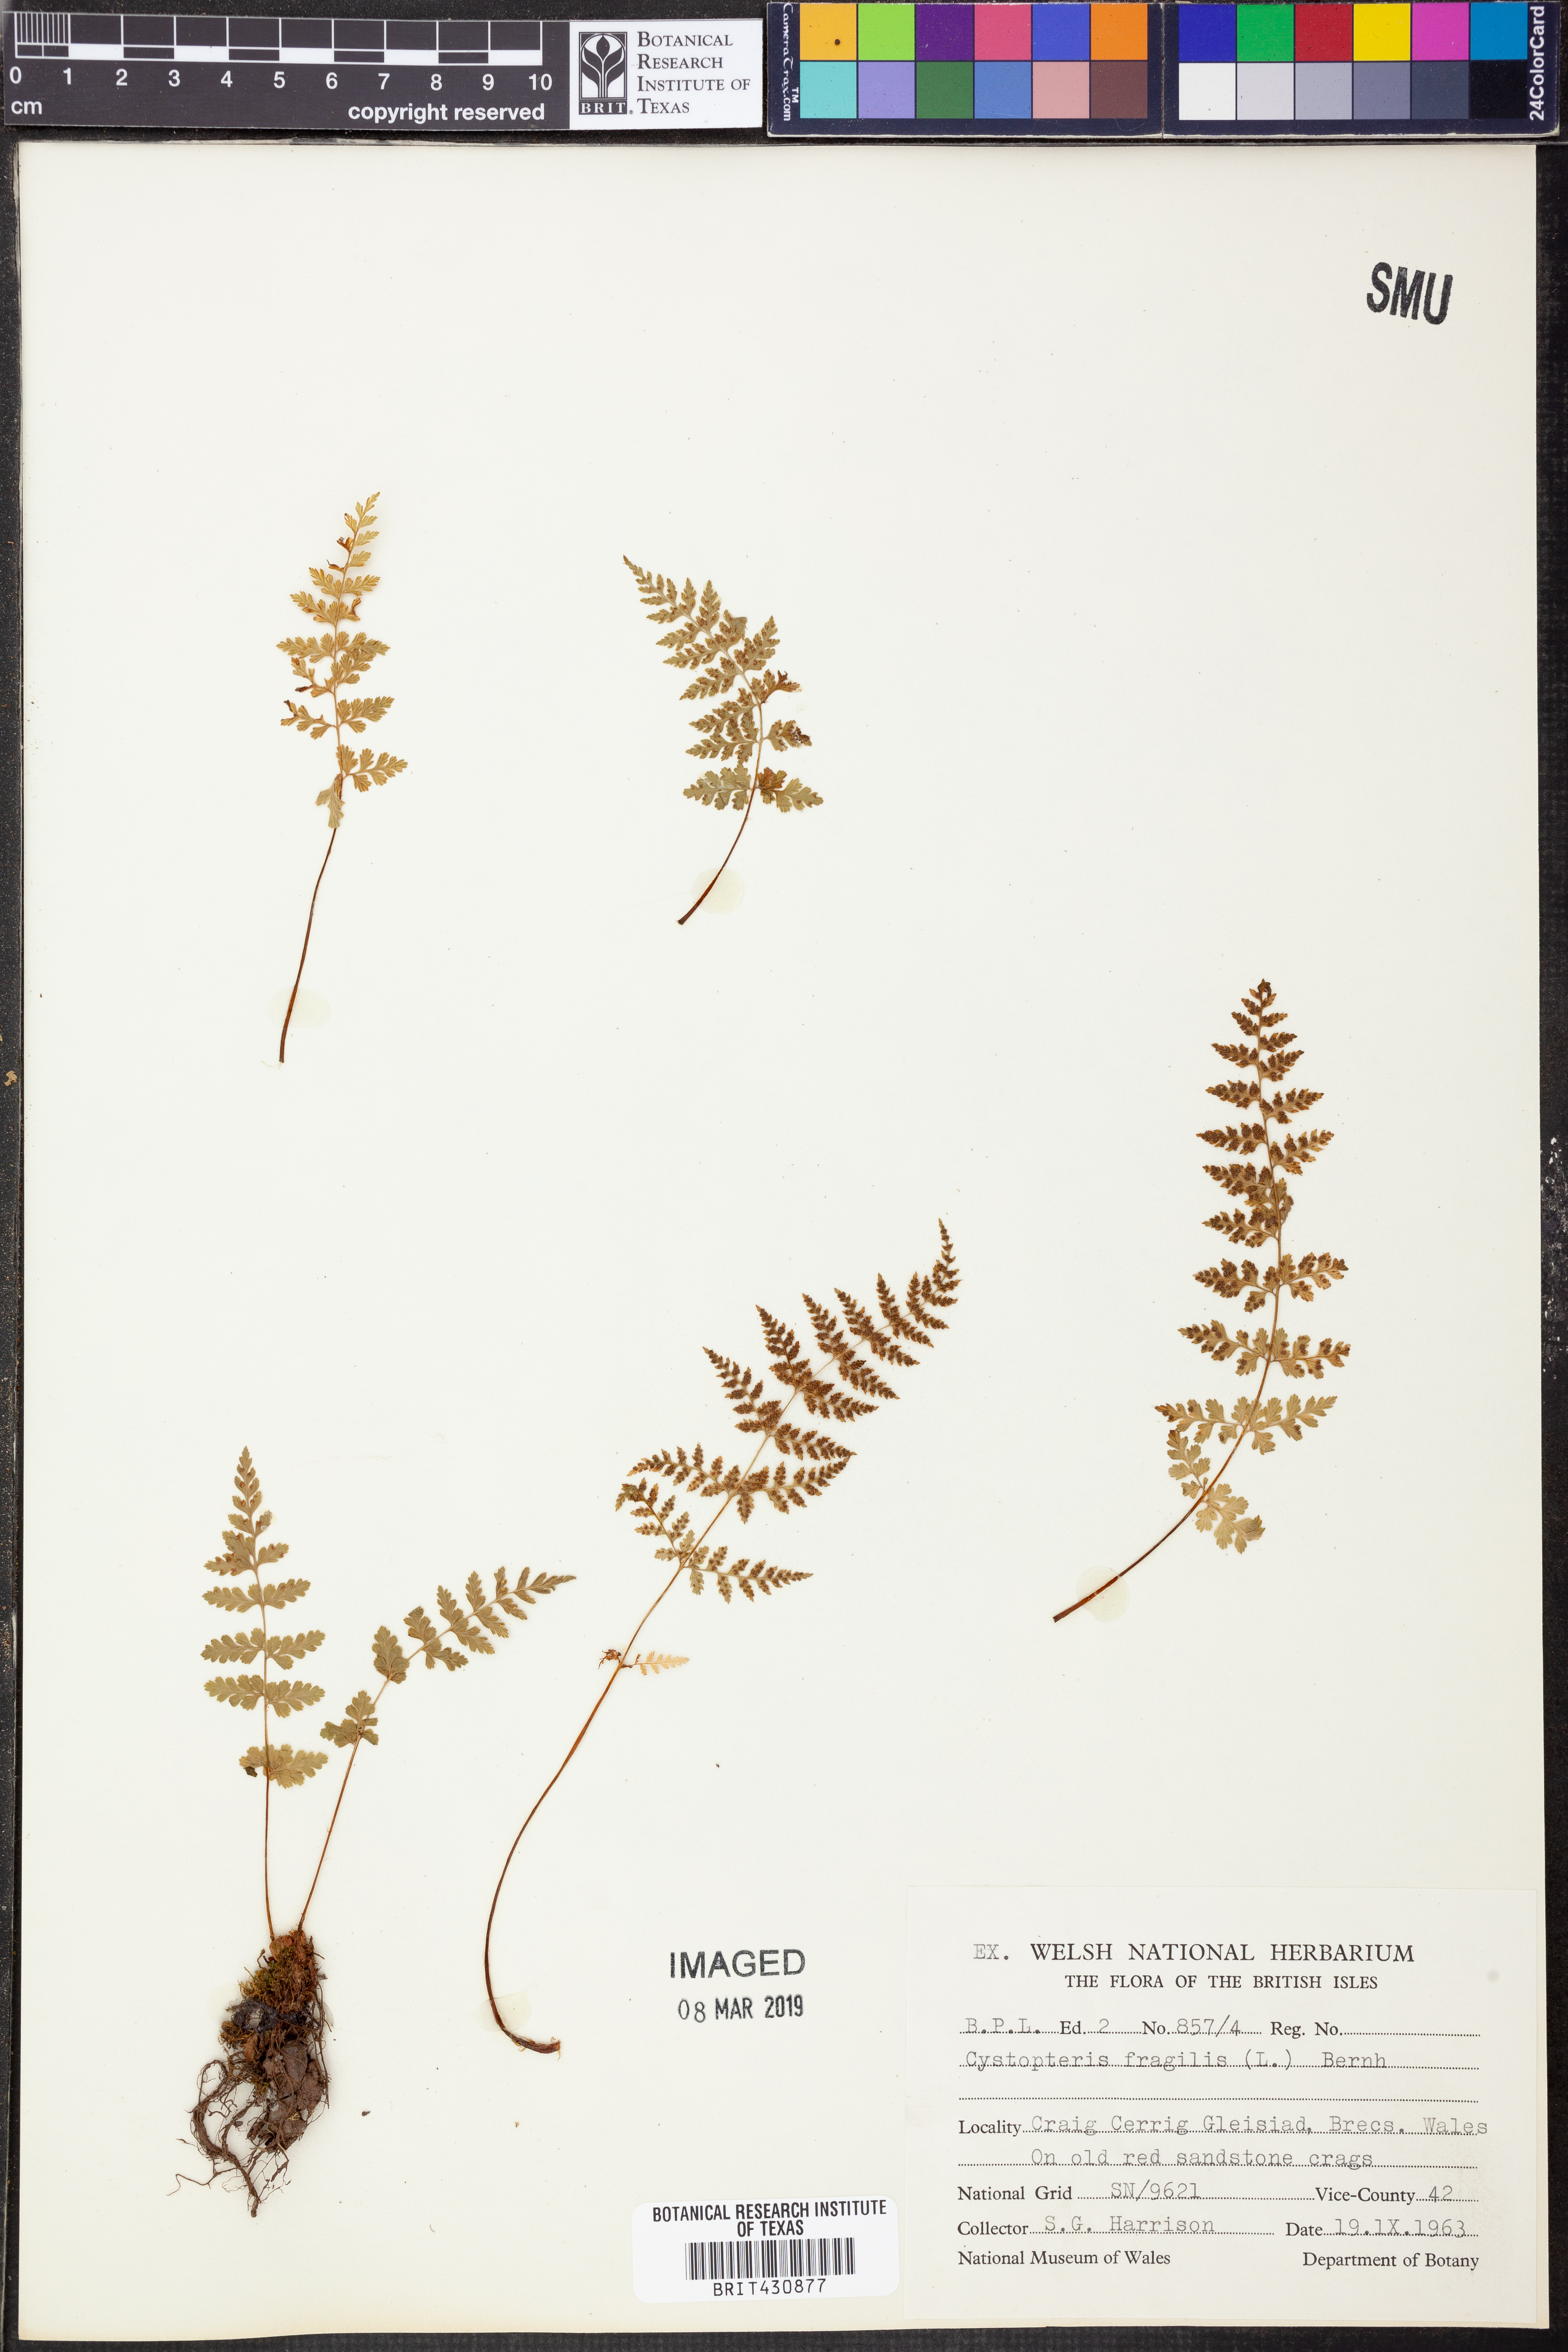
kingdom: Plantae
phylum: Tracheophyta
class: Polypodiopsida
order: Polypodiales
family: Cystopteridaceae
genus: Cystopteris
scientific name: Cystopteris fragilis
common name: Brittle bladder fern
